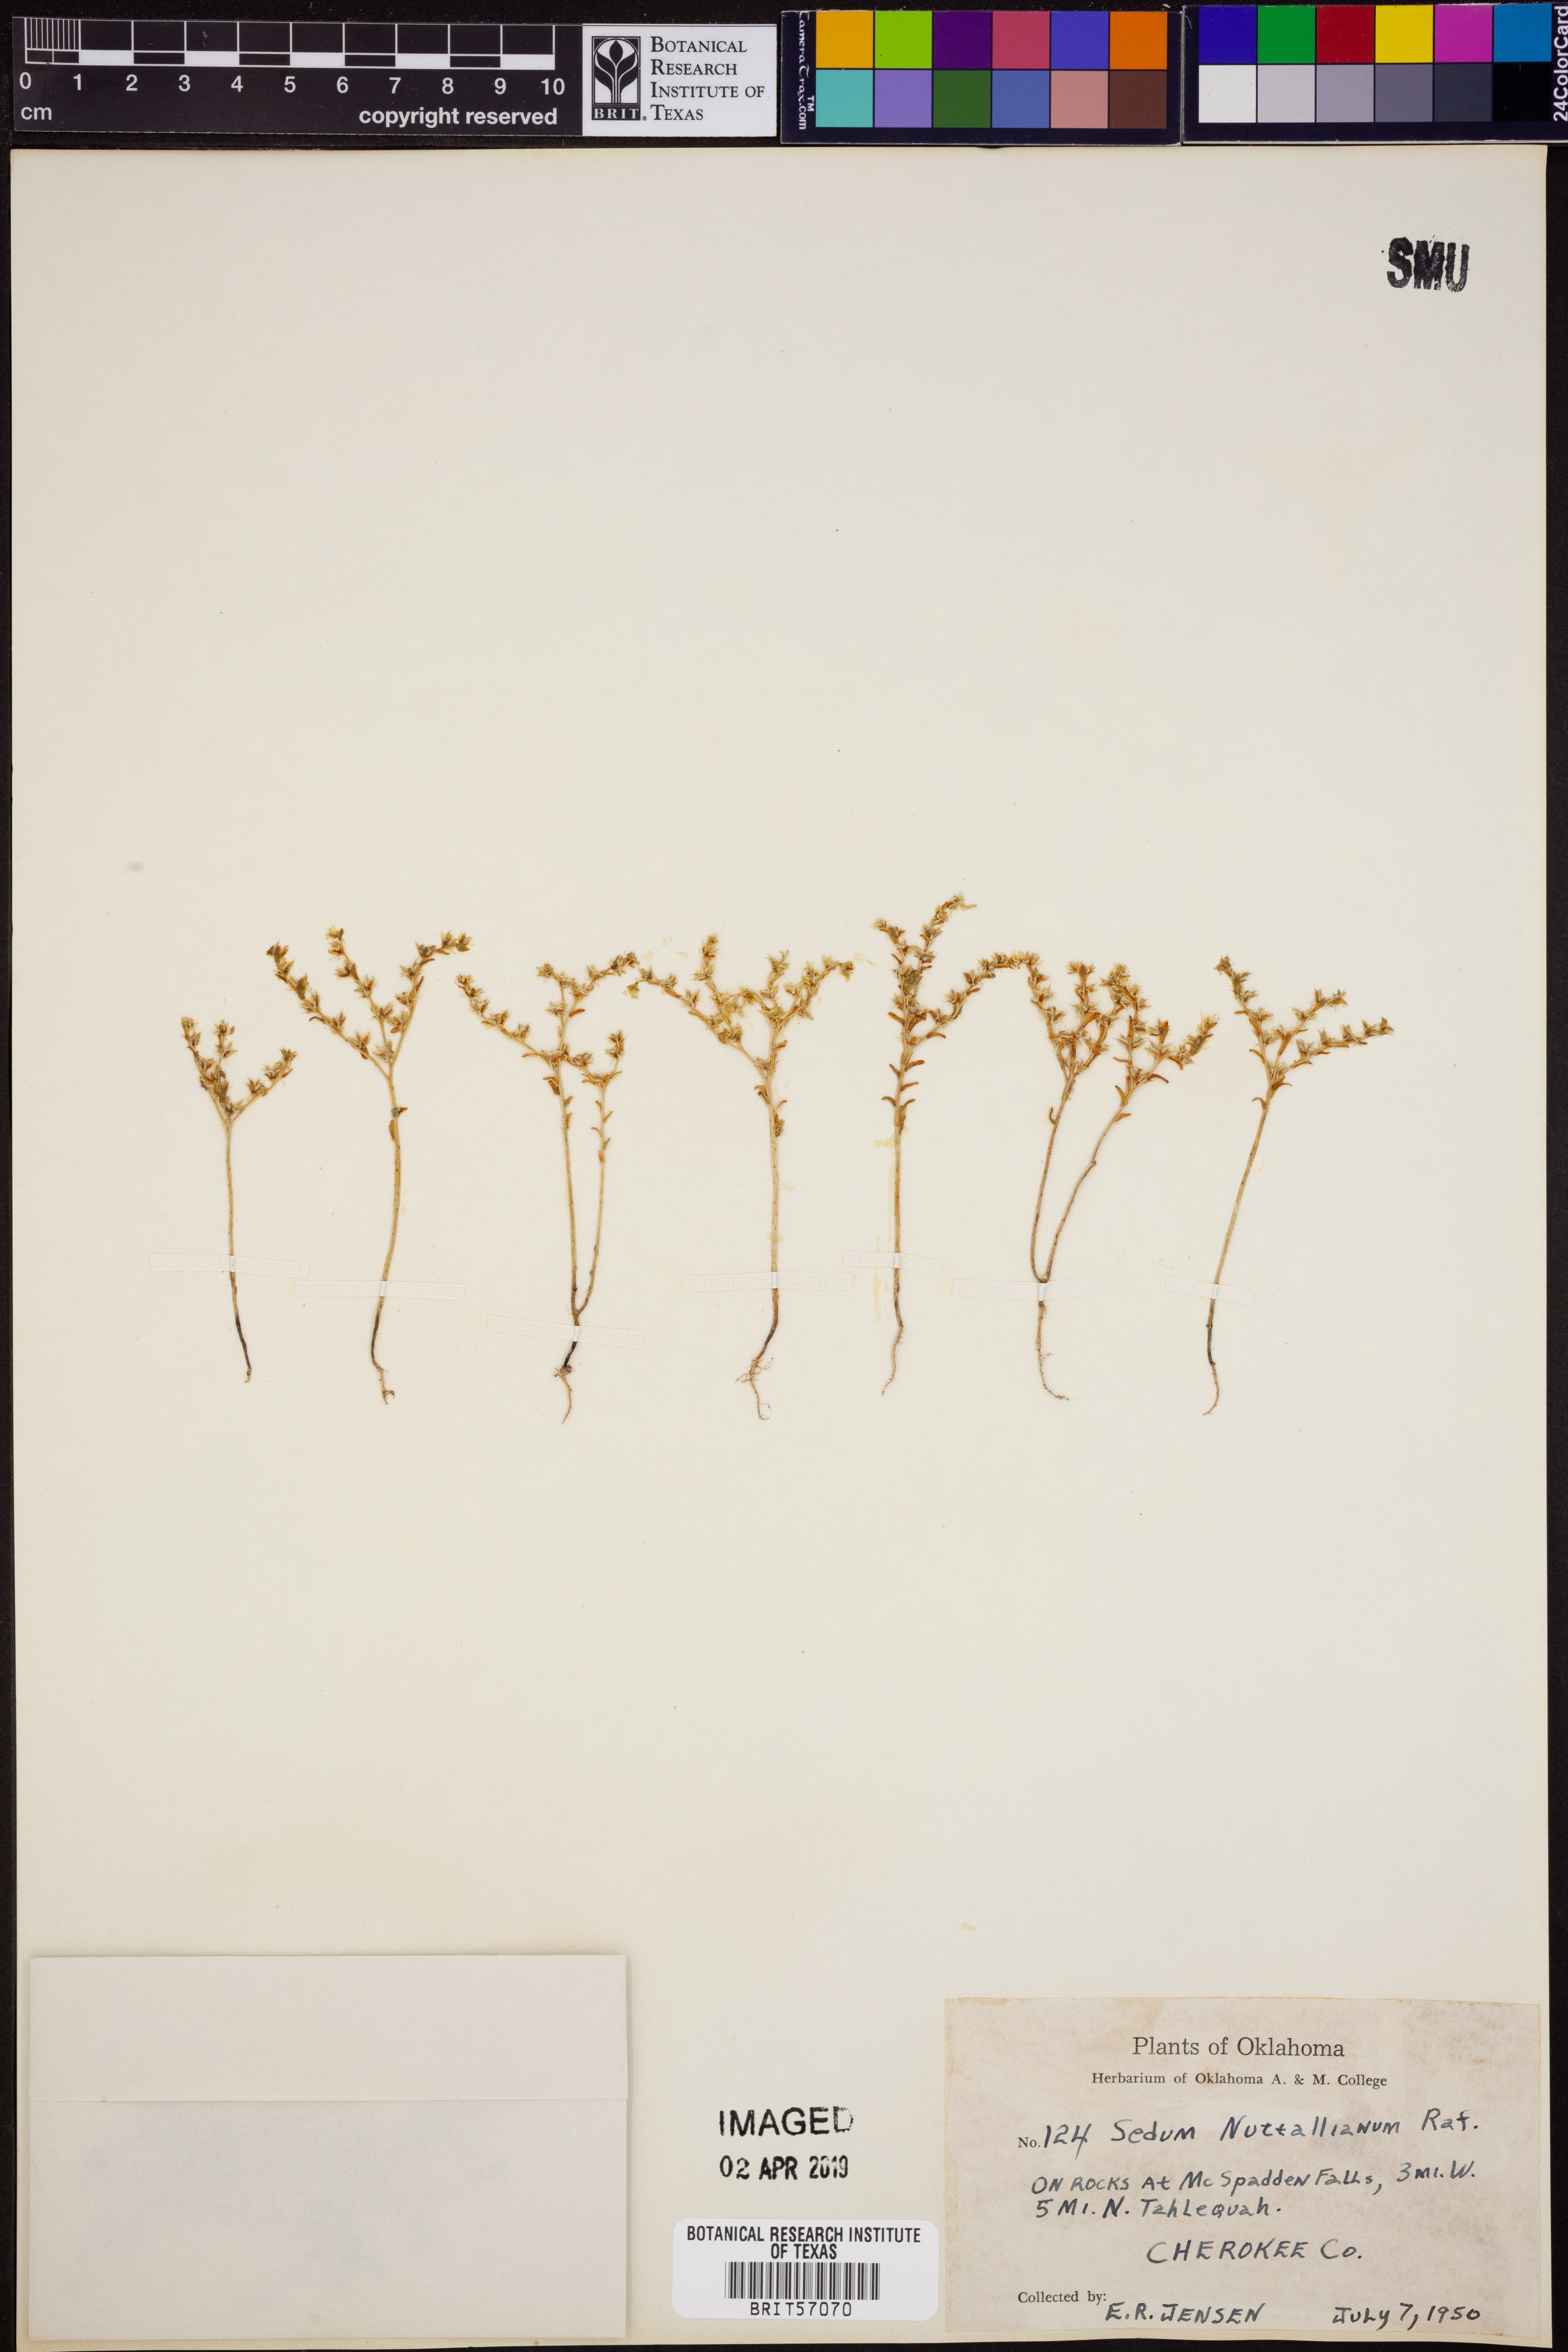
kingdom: Plantae
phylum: Tracheophyta
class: Magnoliopsida
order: Saxifragales
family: Crassulaceae
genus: Sedum
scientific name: Sedum nuttallii
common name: Yellow stonecrop
